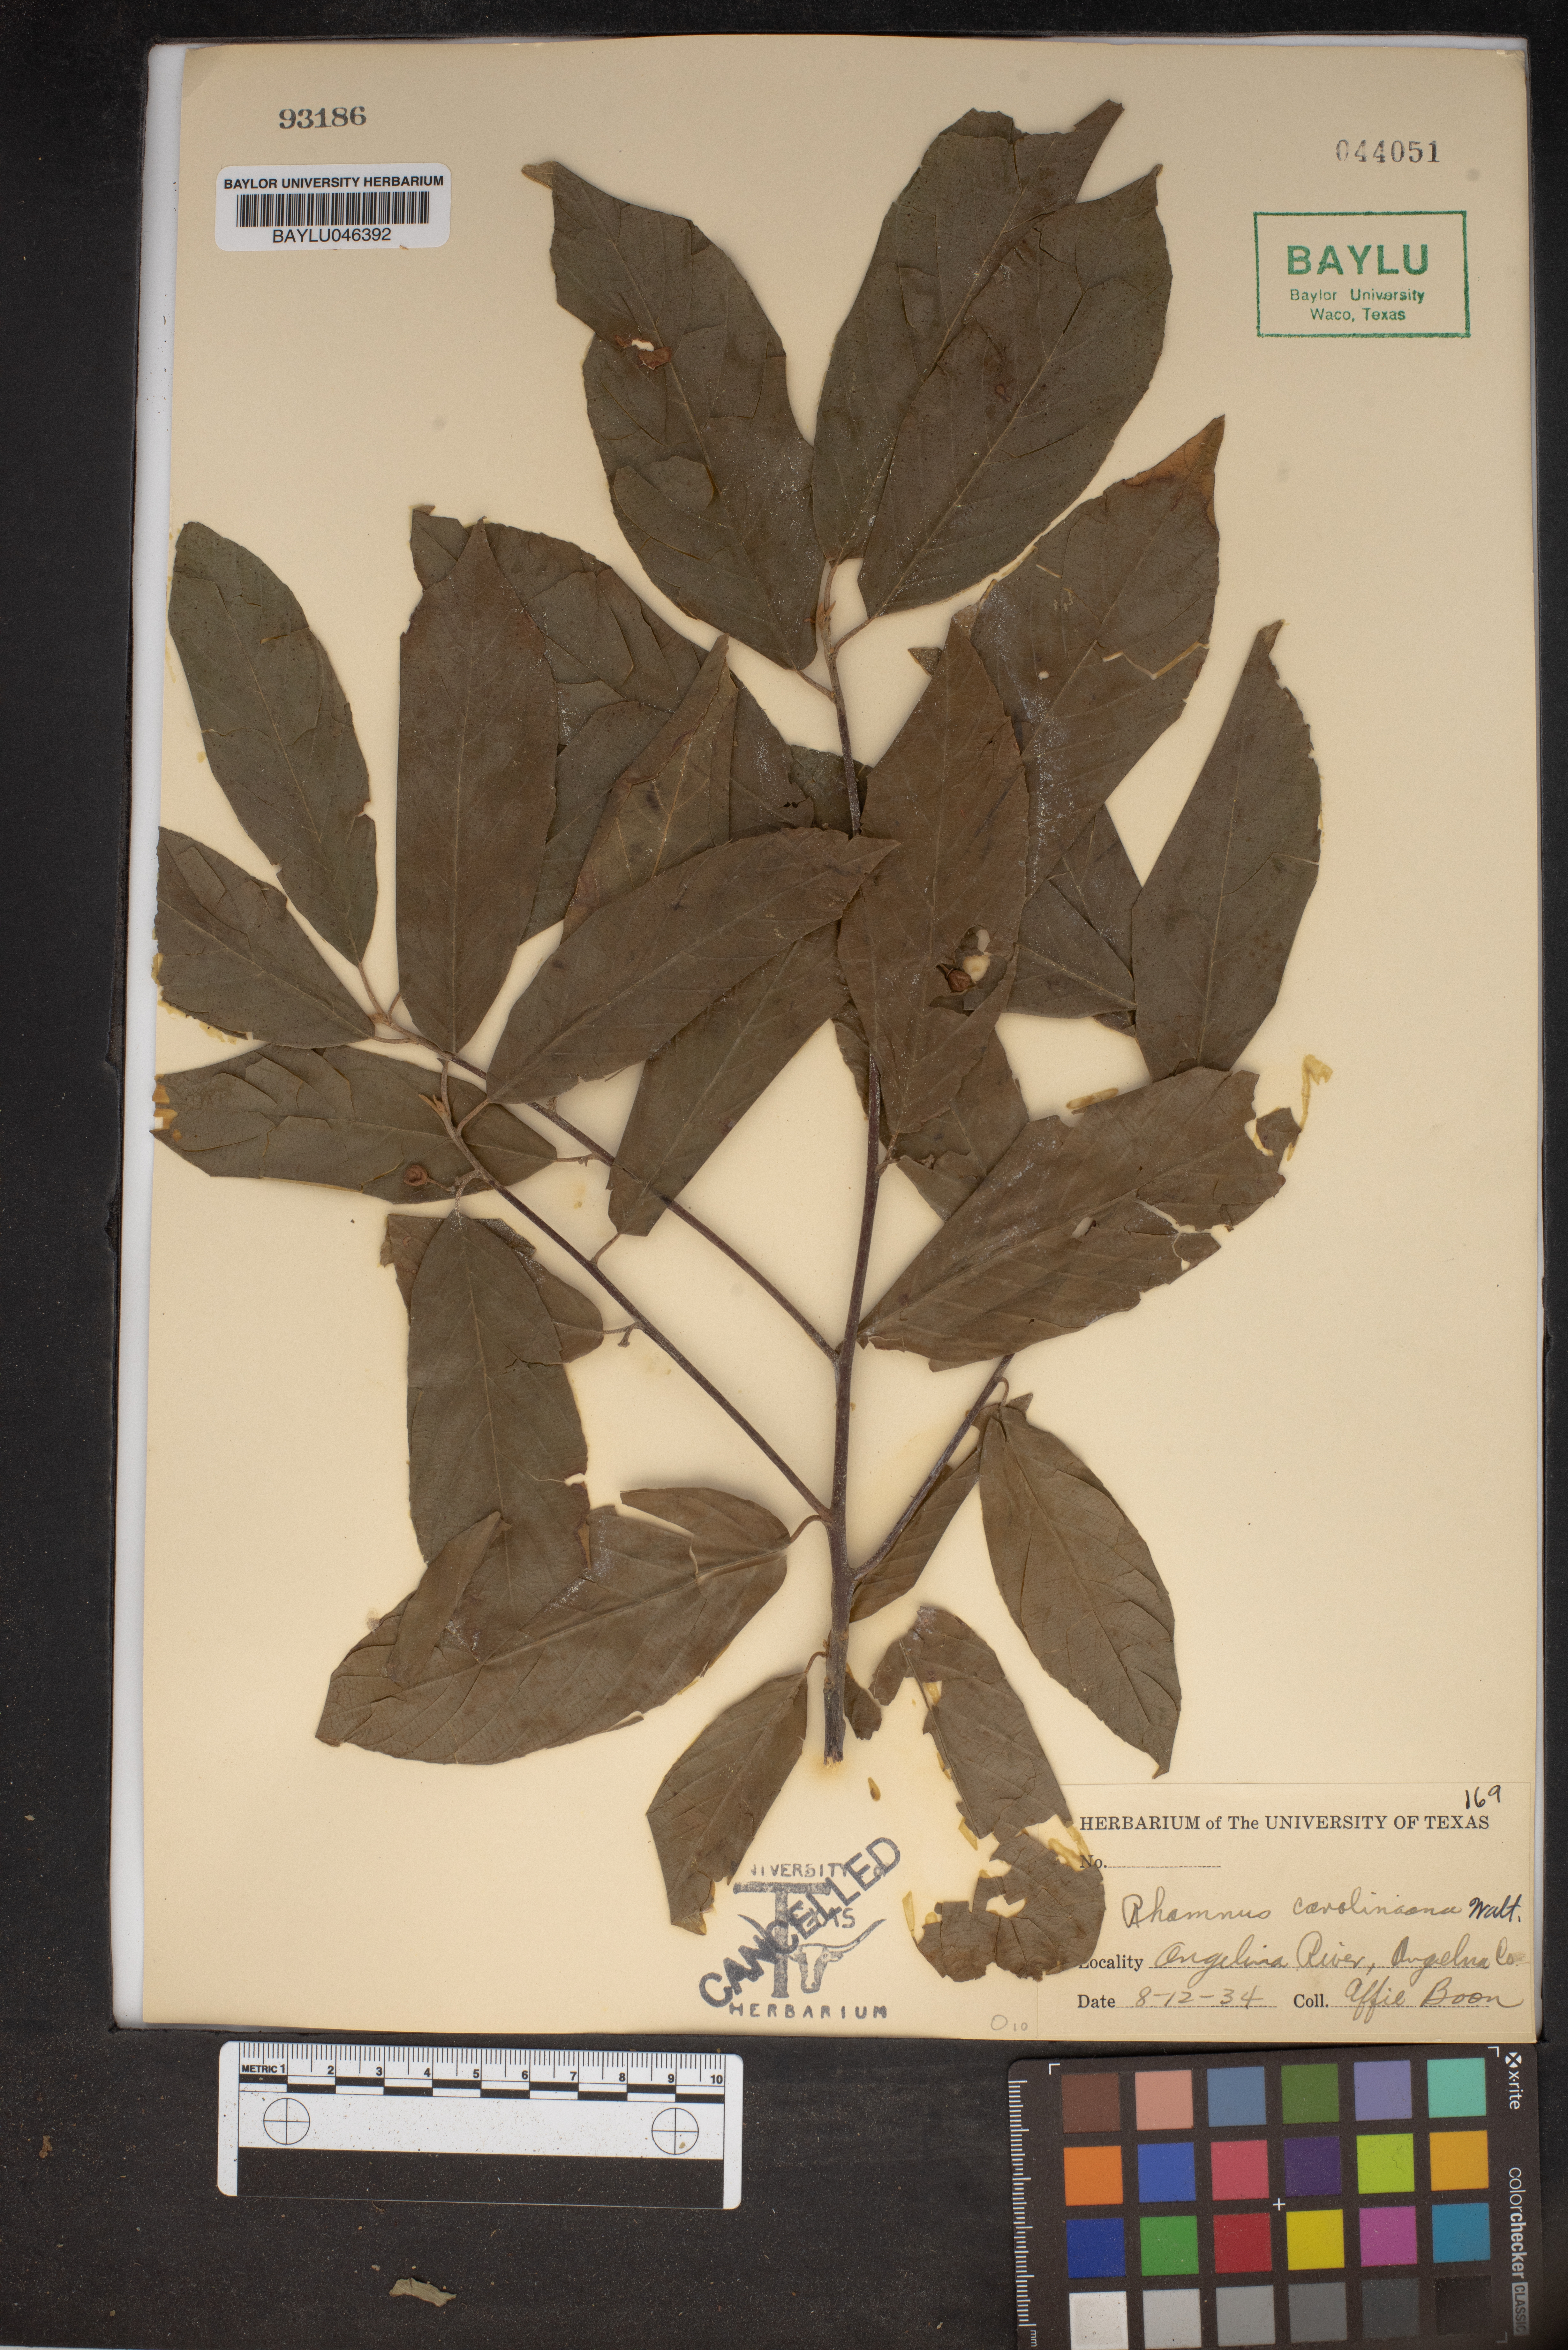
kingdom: Plantae
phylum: Tracheophyta
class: Magnoliopsida
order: Rosales
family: Rhamnaceae
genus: Frangula
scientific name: Frangula caroliniana
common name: Carolina buckthorn
